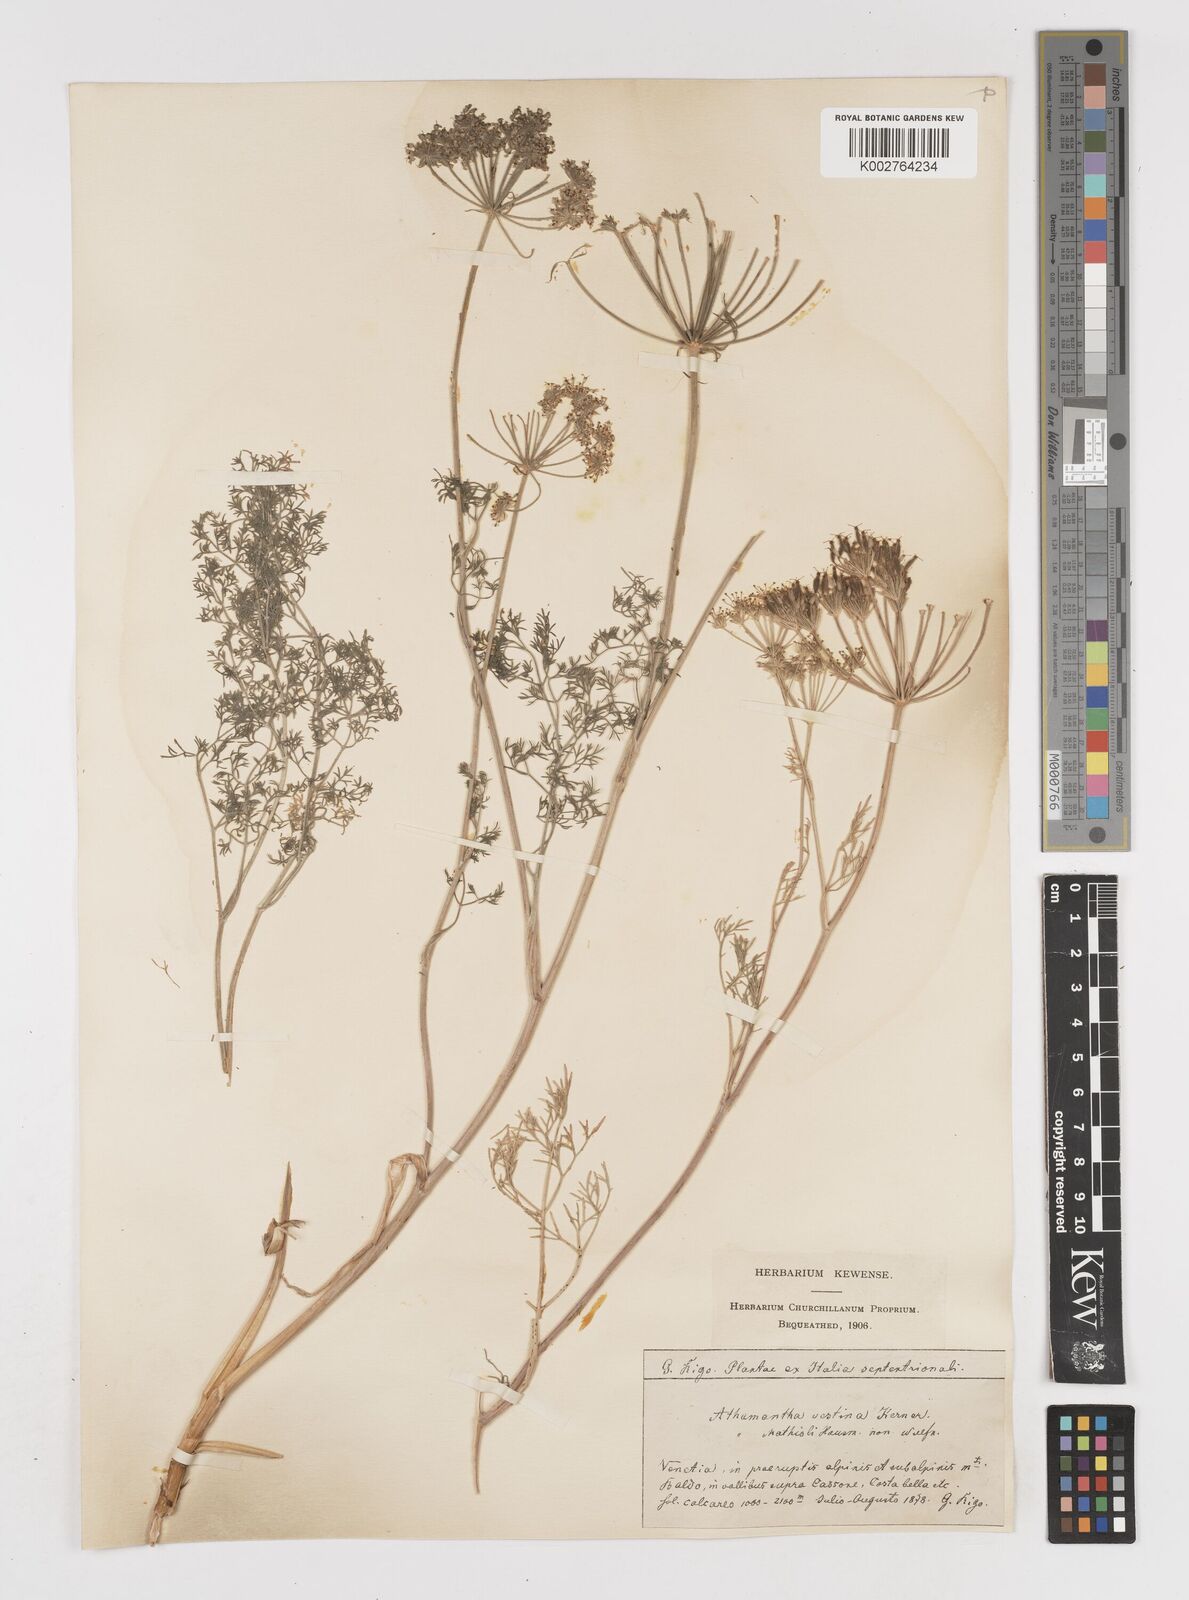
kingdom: Plantae
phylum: Tracheophyta
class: Magnoliopsida
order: Apiales
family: Apiaceae
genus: Athamanta
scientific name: Athamanta cretensis
